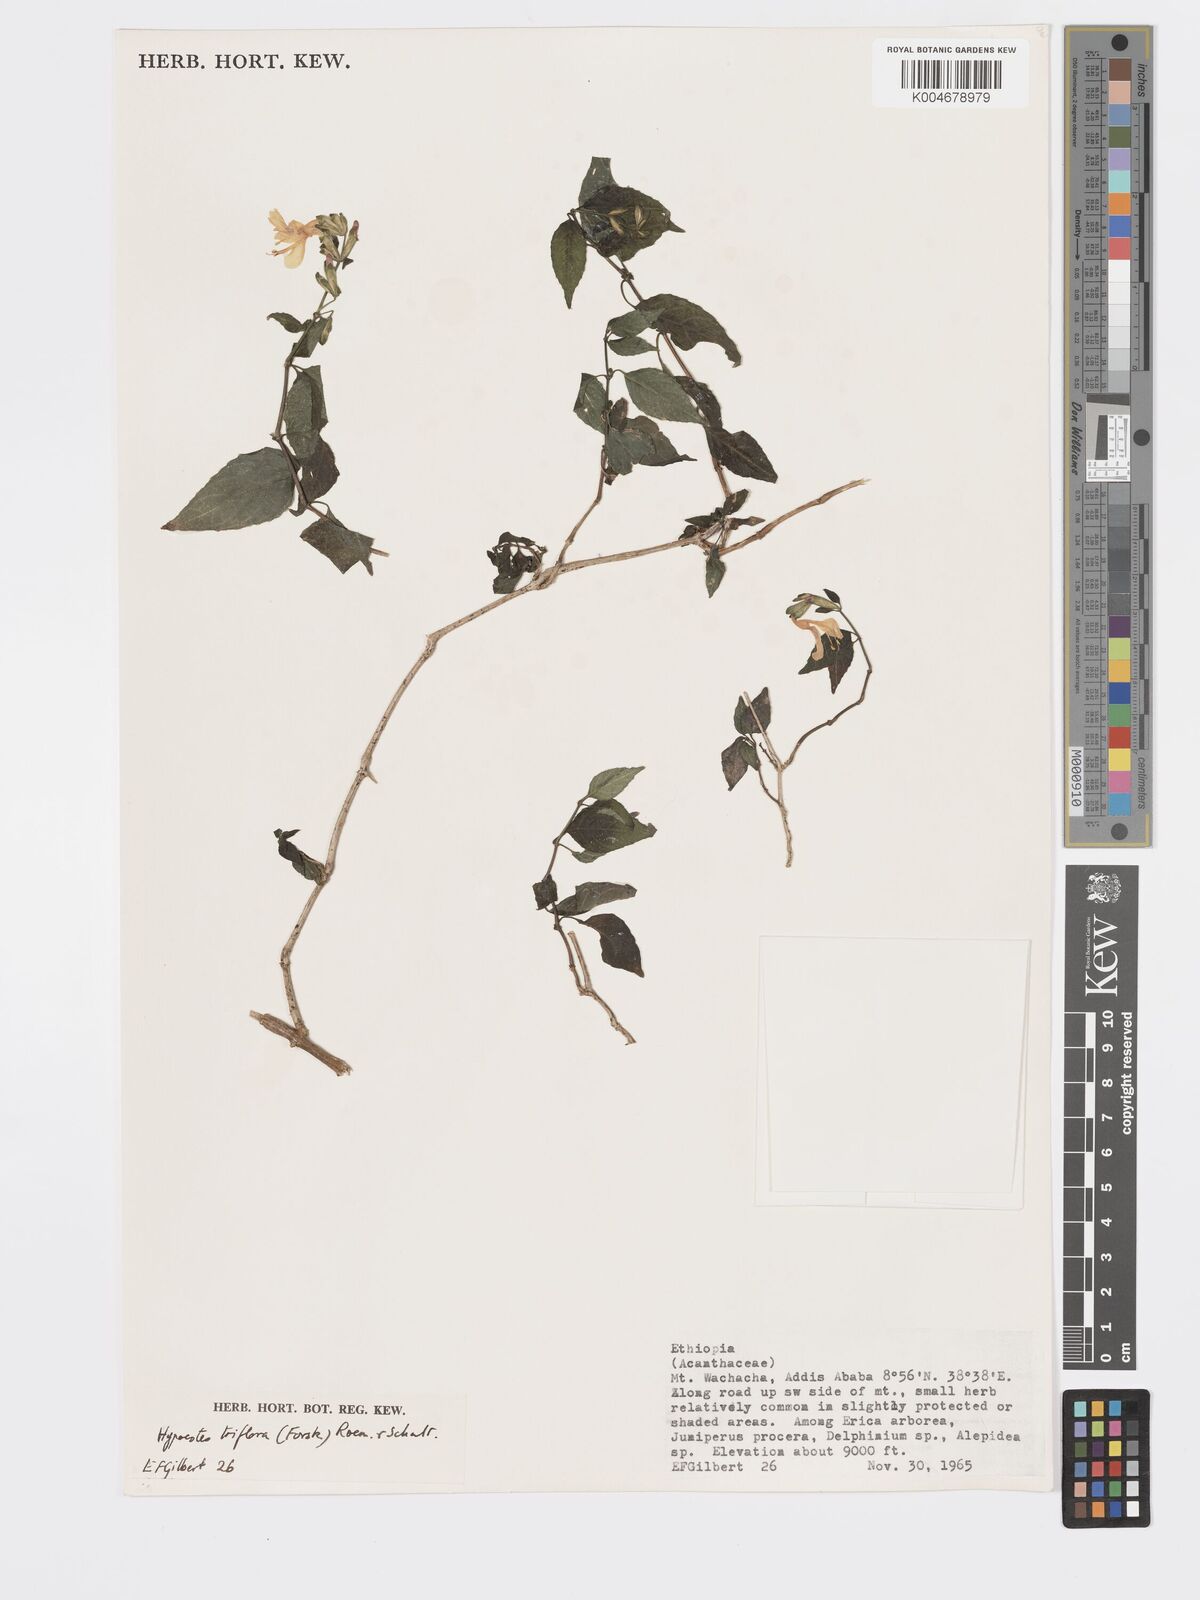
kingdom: Plantae
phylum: Tracheophyta
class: Magnoliopsida
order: Lamiales
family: Acanthaceae
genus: Hypoestes
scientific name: Hypoestes triflora
